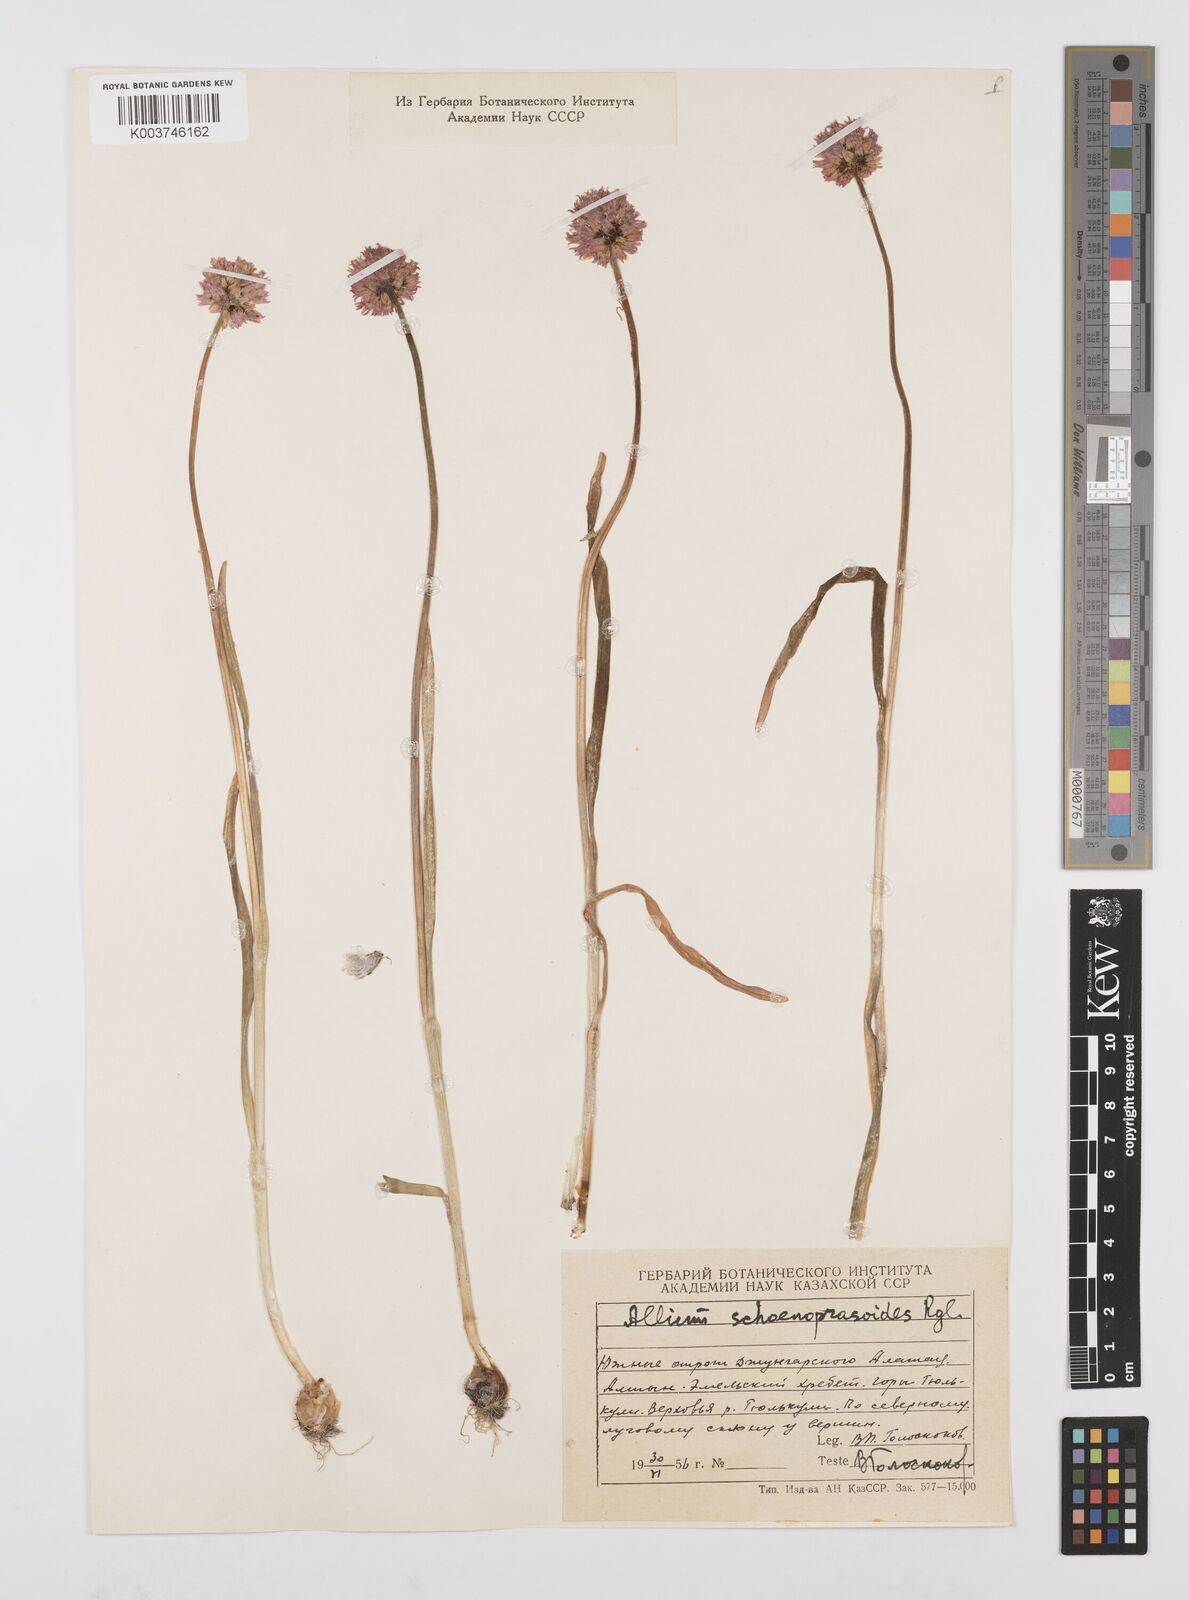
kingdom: Plantae
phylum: Tracheophyta
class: Liliopsida
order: Asparagales
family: Amaryllidaceae
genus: Allium
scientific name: Allium schoenoprasoides
